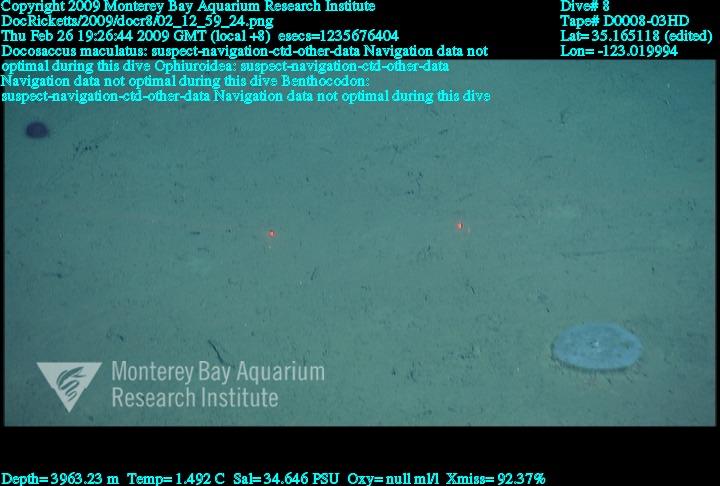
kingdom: Animalia
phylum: Porifera
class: Hexactinellida
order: Lyssacinosida
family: Euplectellidae
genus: Docosaccus
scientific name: Docosaccus maculatus
